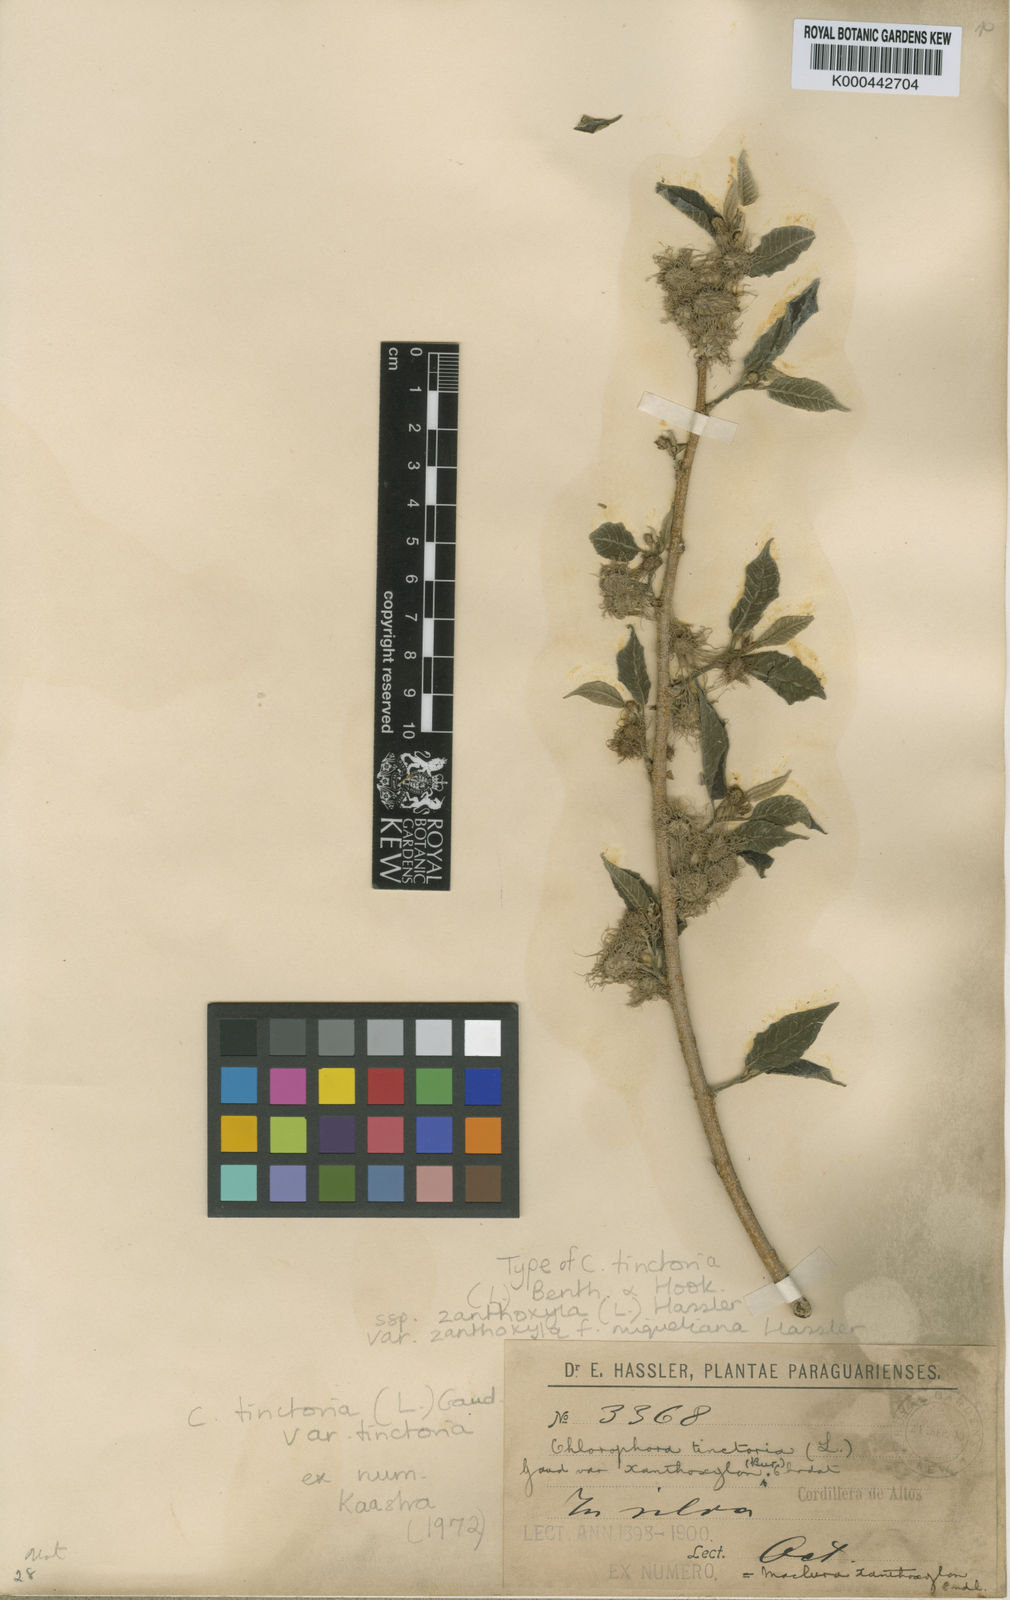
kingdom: Plantae
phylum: Tracheophyta
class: Magnoliopsida
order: Rosales
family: Moraceae
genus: Maclura
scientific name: Maclura tinctoria
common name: Old fustic
